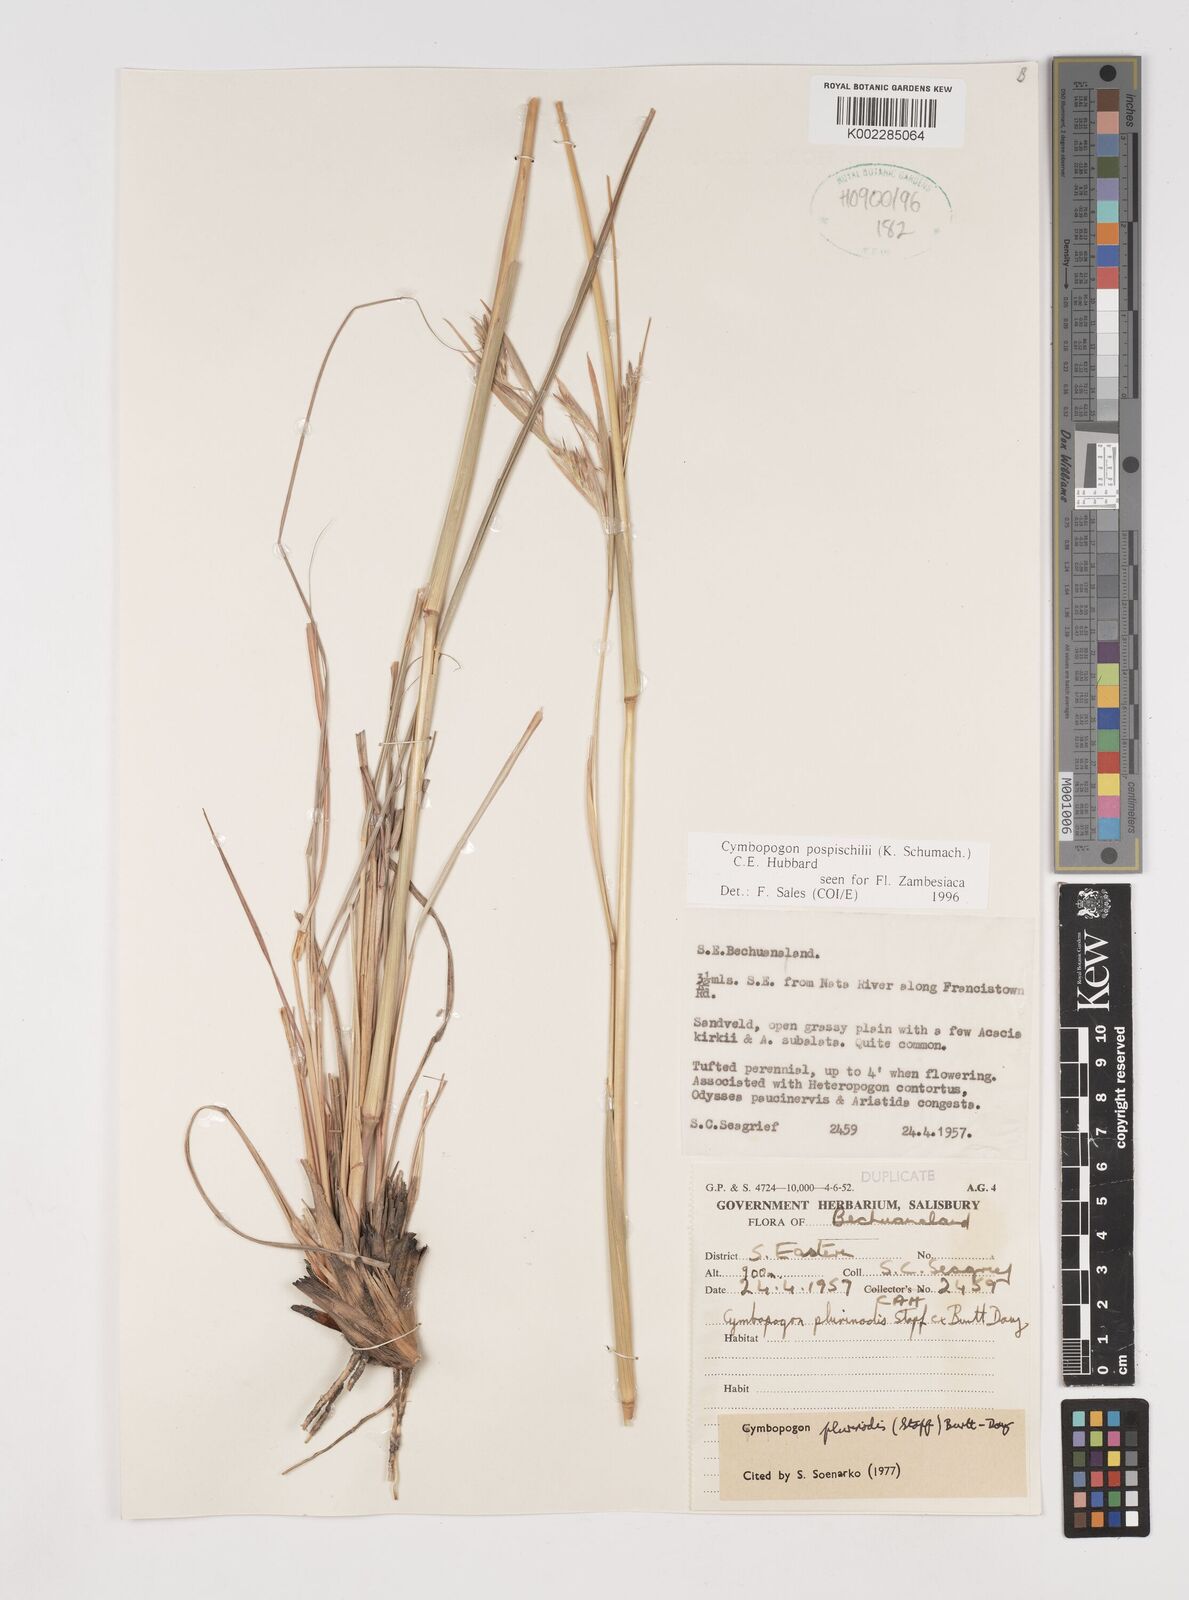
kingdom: Plantae
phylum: Tracheophyta
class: Liliopsida
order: Poales
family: Poaceae
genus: Cymbopogon
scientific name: Cymbopogon pospischilii
